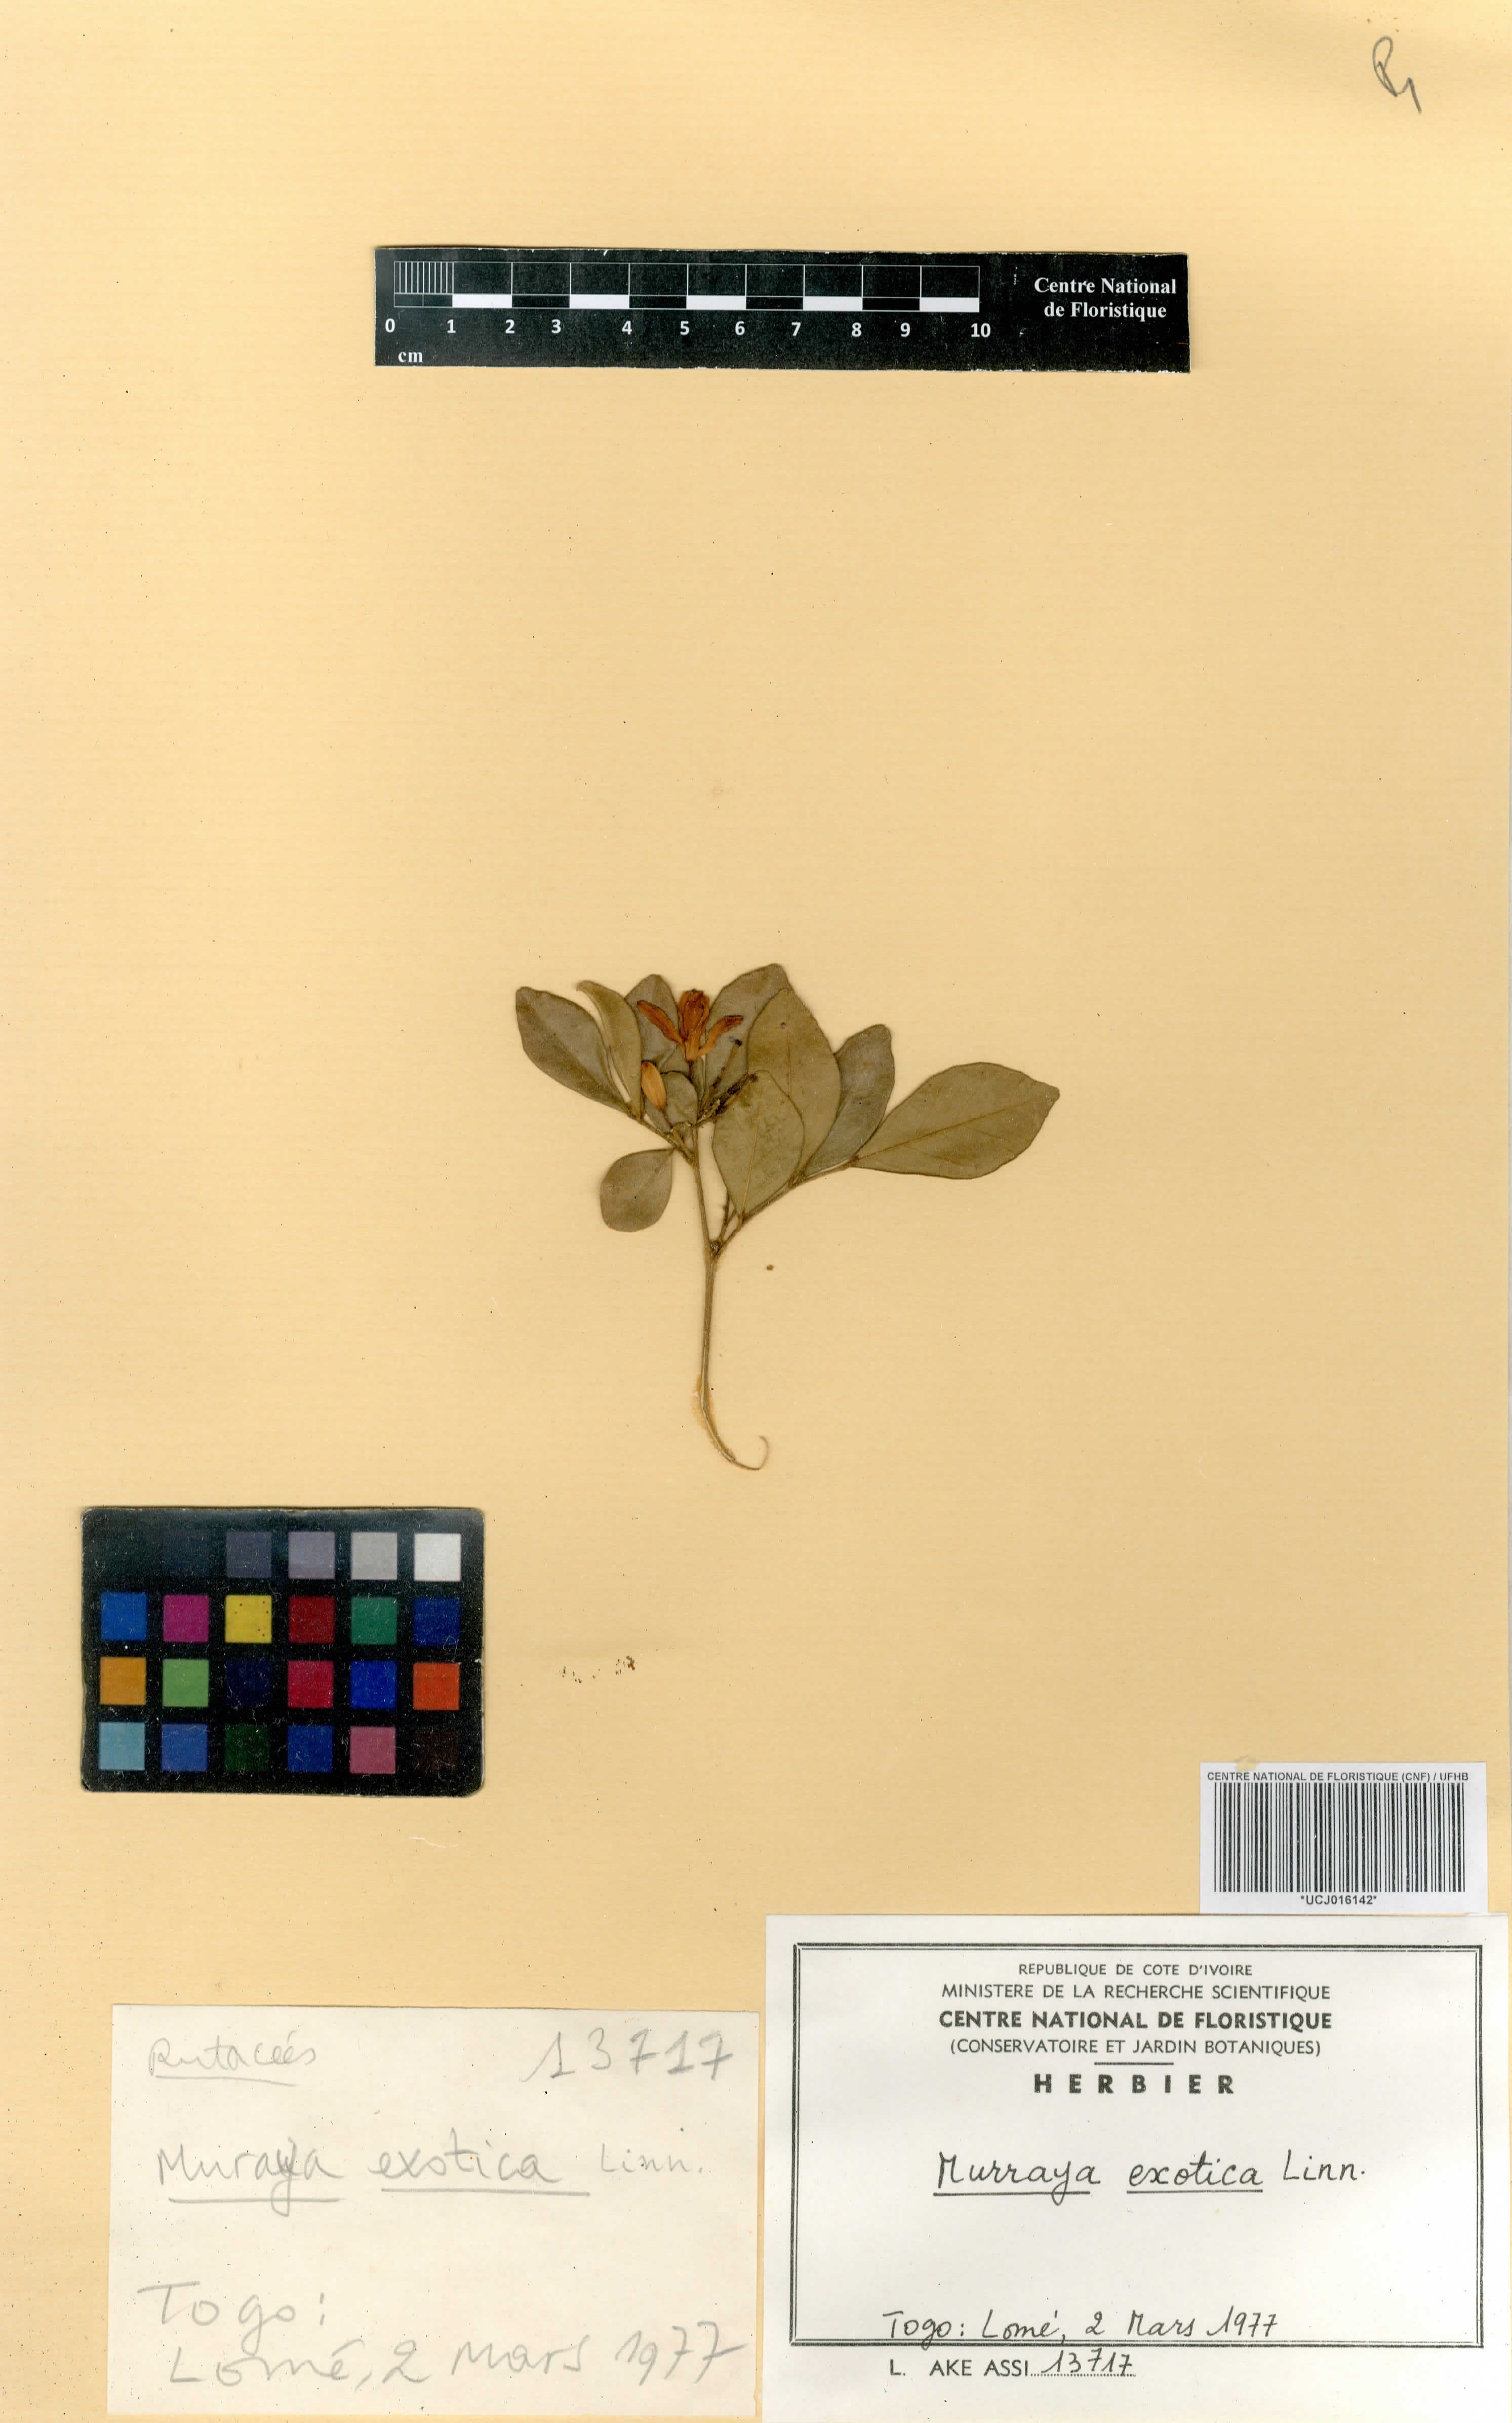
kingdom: Plantae
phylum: Tracheophyta
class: Magnoliopsida
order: Sapindales
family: Rutaceae
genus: Murraya
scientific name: Murraya paniculata
